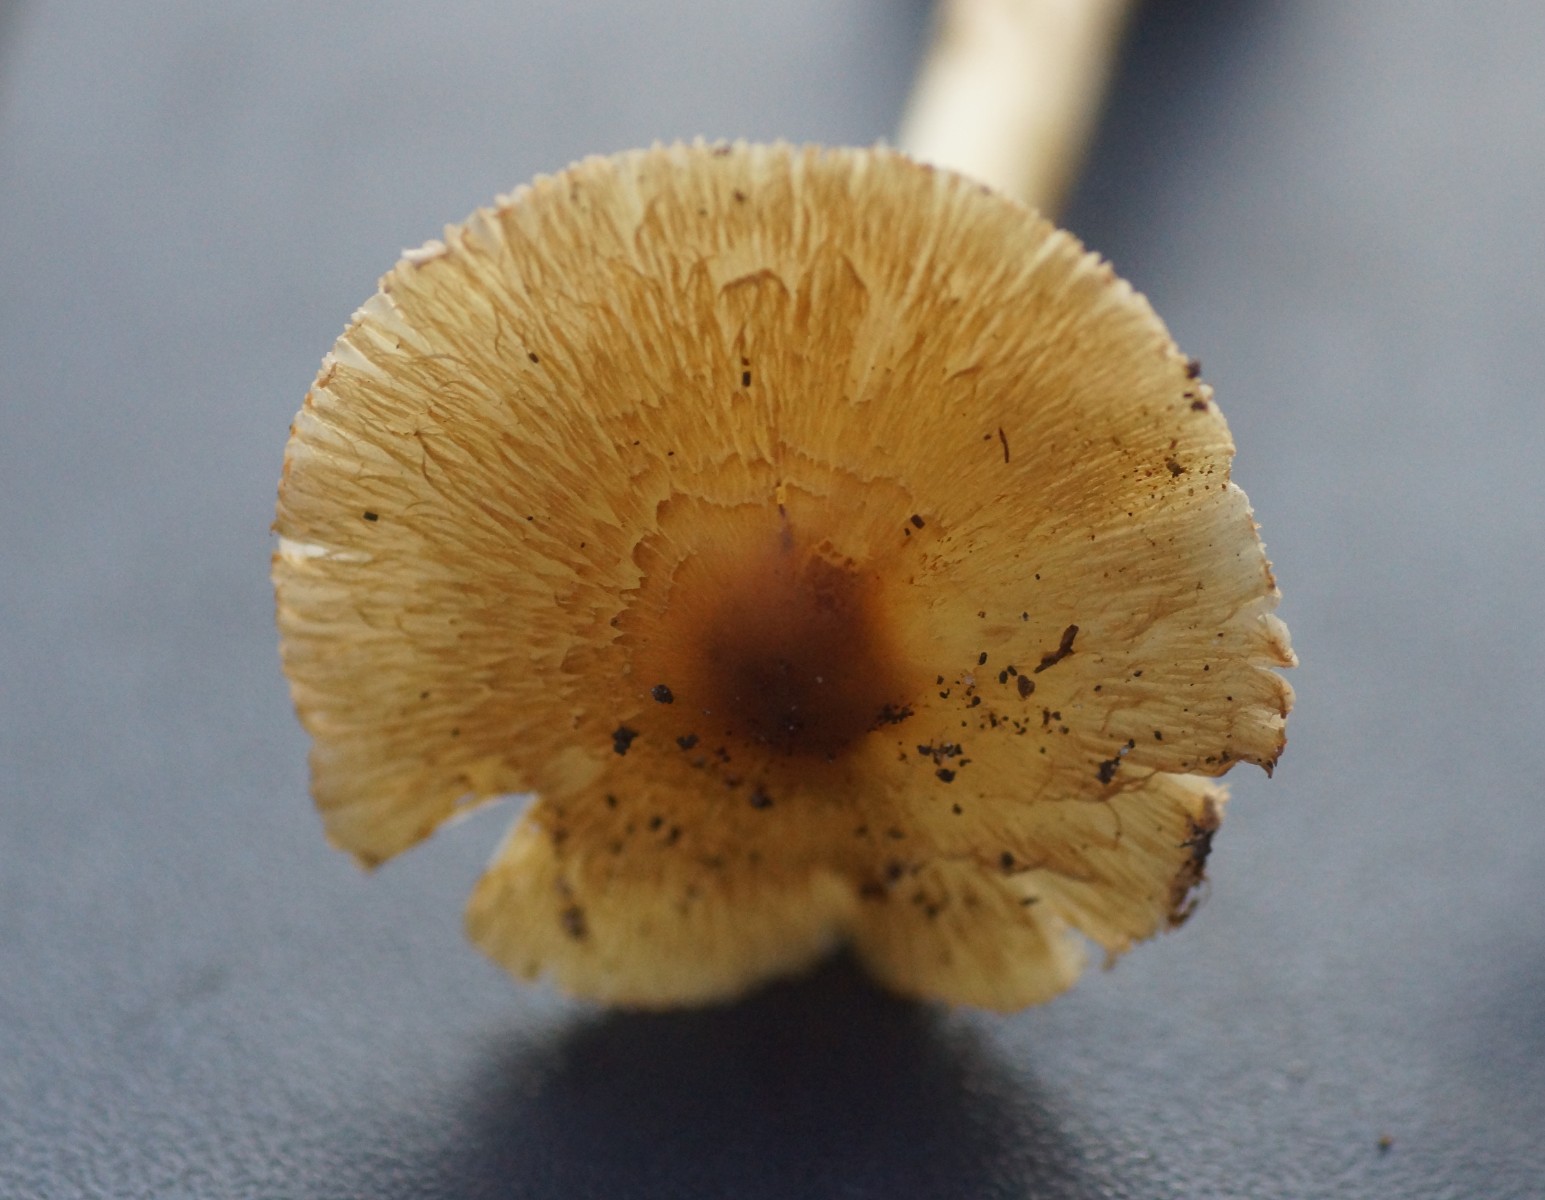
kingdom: Fungi
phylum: Basidiomycota
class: Agaricomycetes
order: Agaricales
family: Inocybaceae
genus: Inocybe
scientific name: Inocybe
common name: trævlhat
